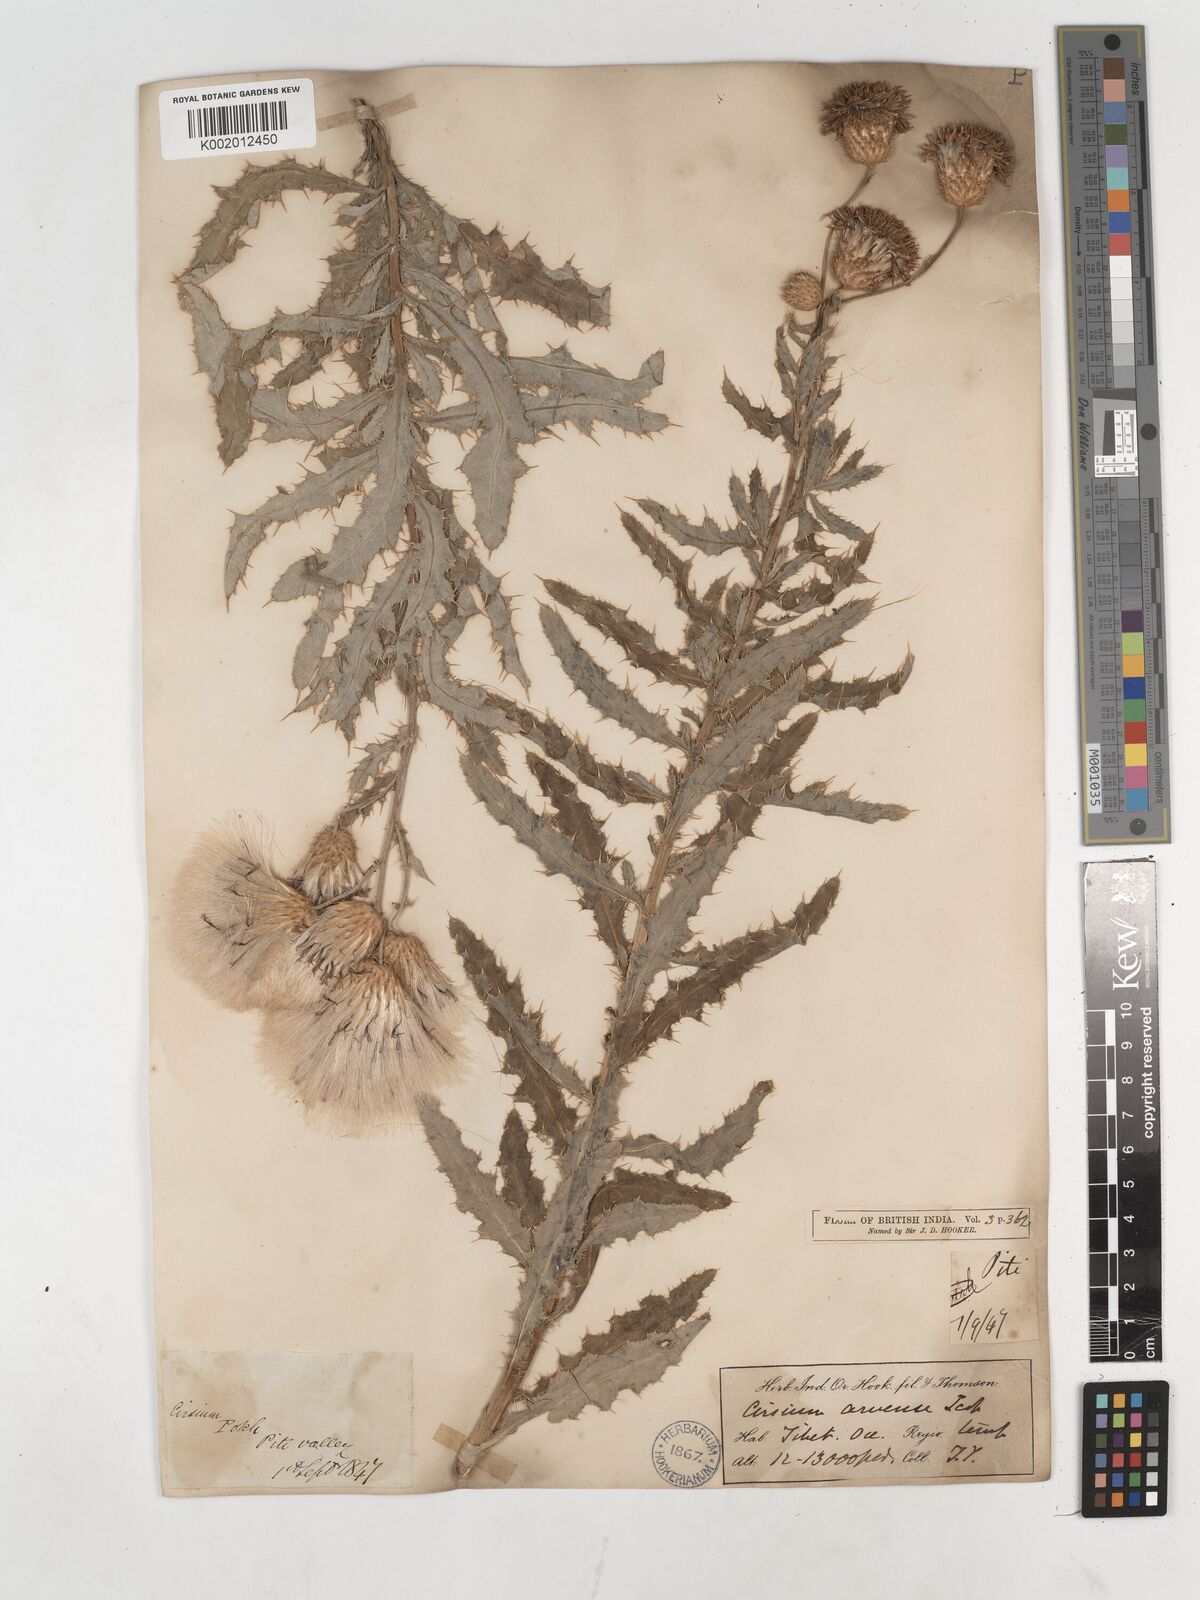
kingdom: Plantae
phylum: Tracheophyta
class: Magnoliopsida
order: Asterales
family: Asteraceae
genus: Cirsium
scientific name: Cirsium arvense
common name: Creeping thistle
